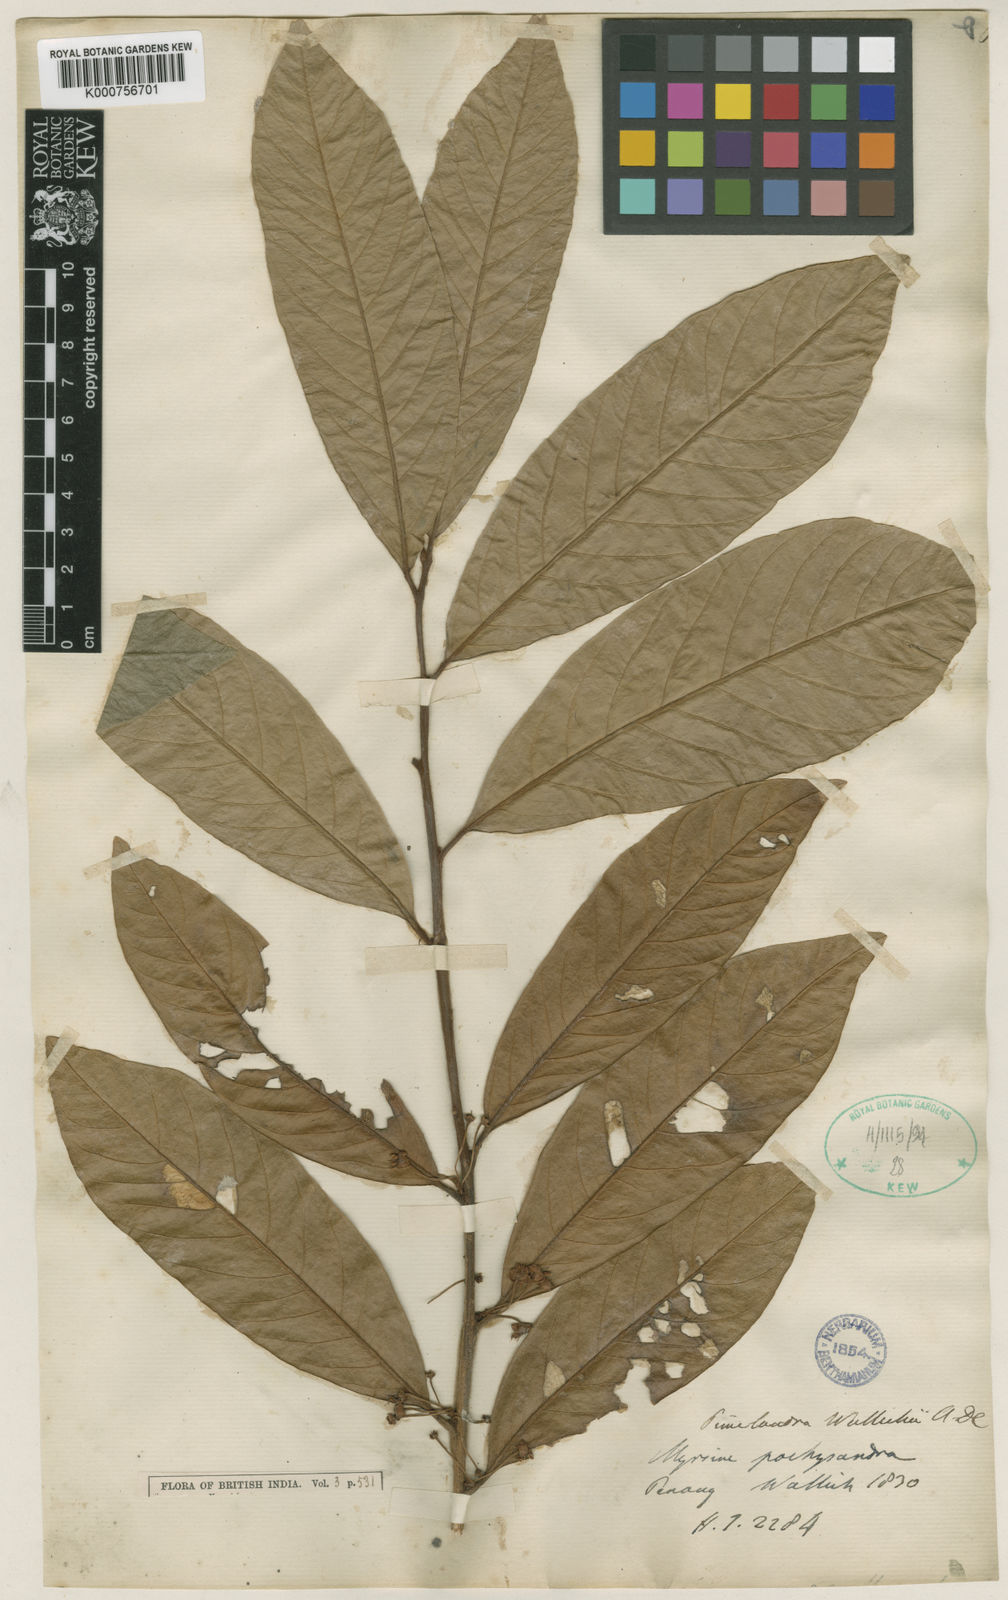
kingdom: Plantae
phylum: Tracheophyta
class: Magnoliopsida
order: Ericales
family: Primulaceae
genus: Ardisia
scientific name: Ardisia pachysandra
